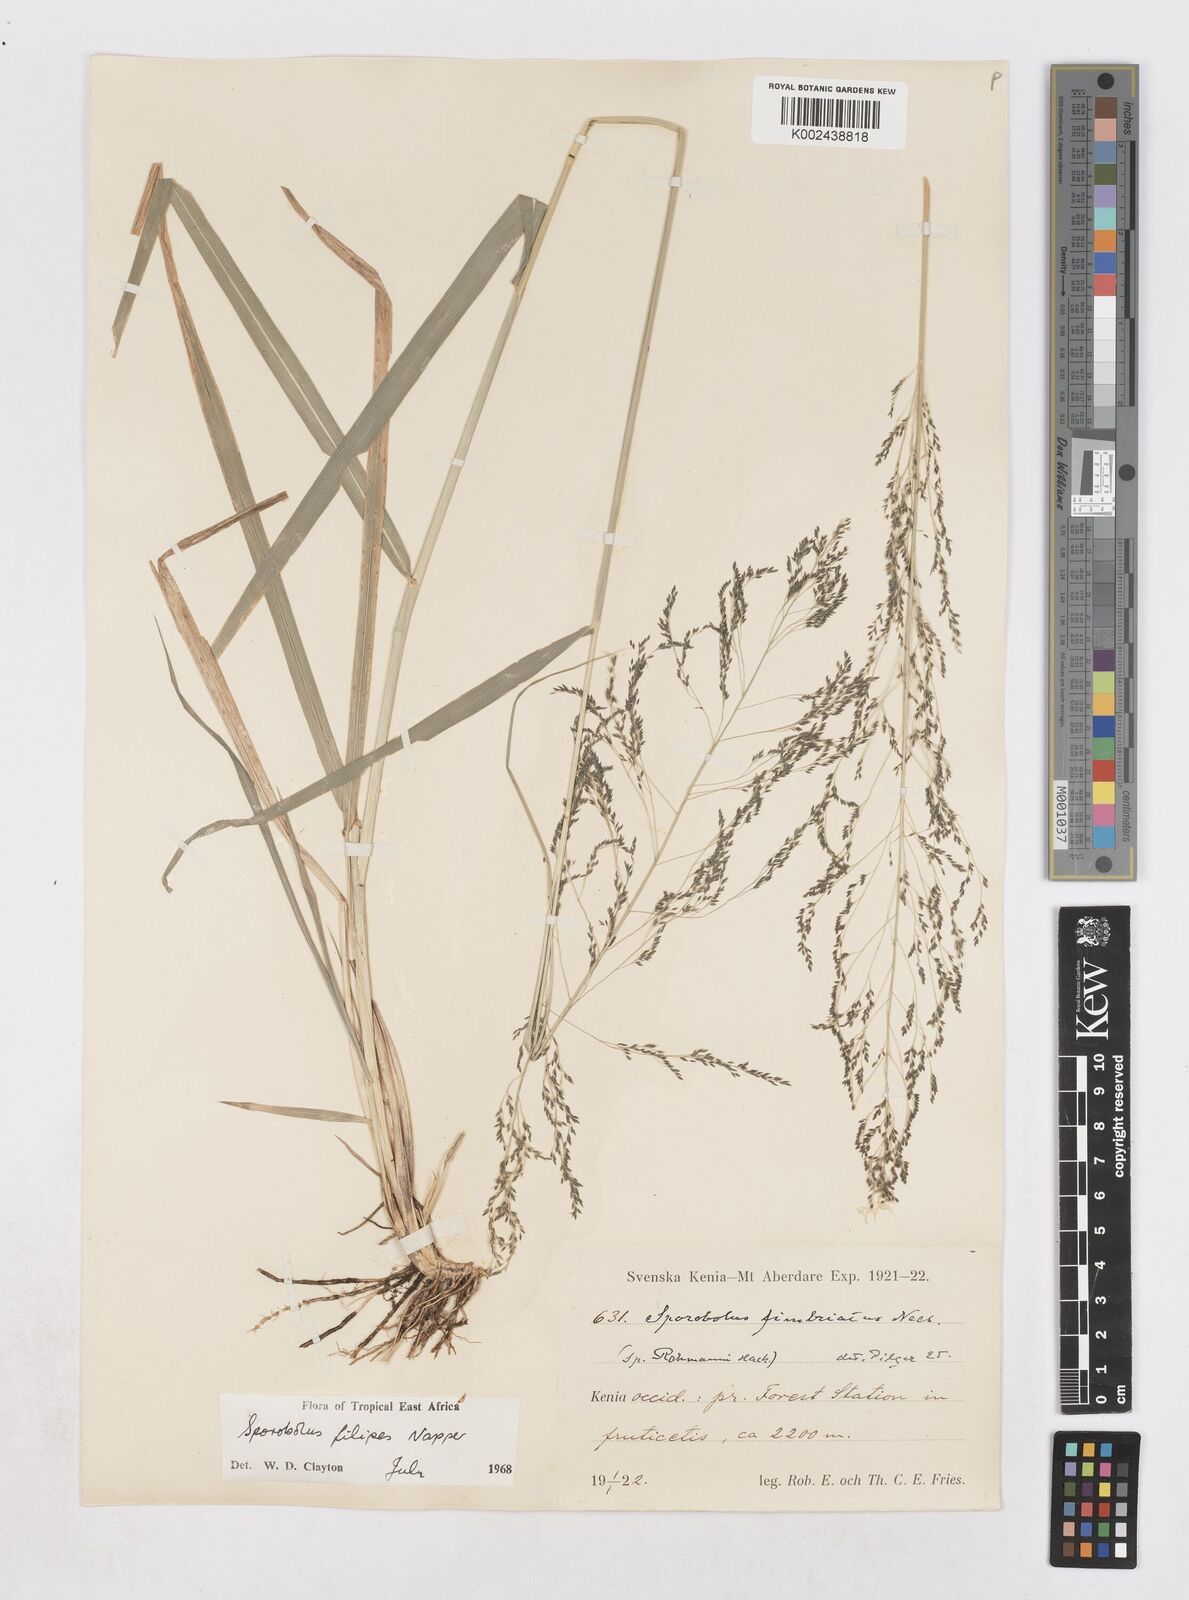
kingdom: Plantae
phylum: Tracheophyta
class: Liliopsida
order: Poales
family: Poaceae
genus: Sporobolus
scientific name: Sporobolus agrostoides
